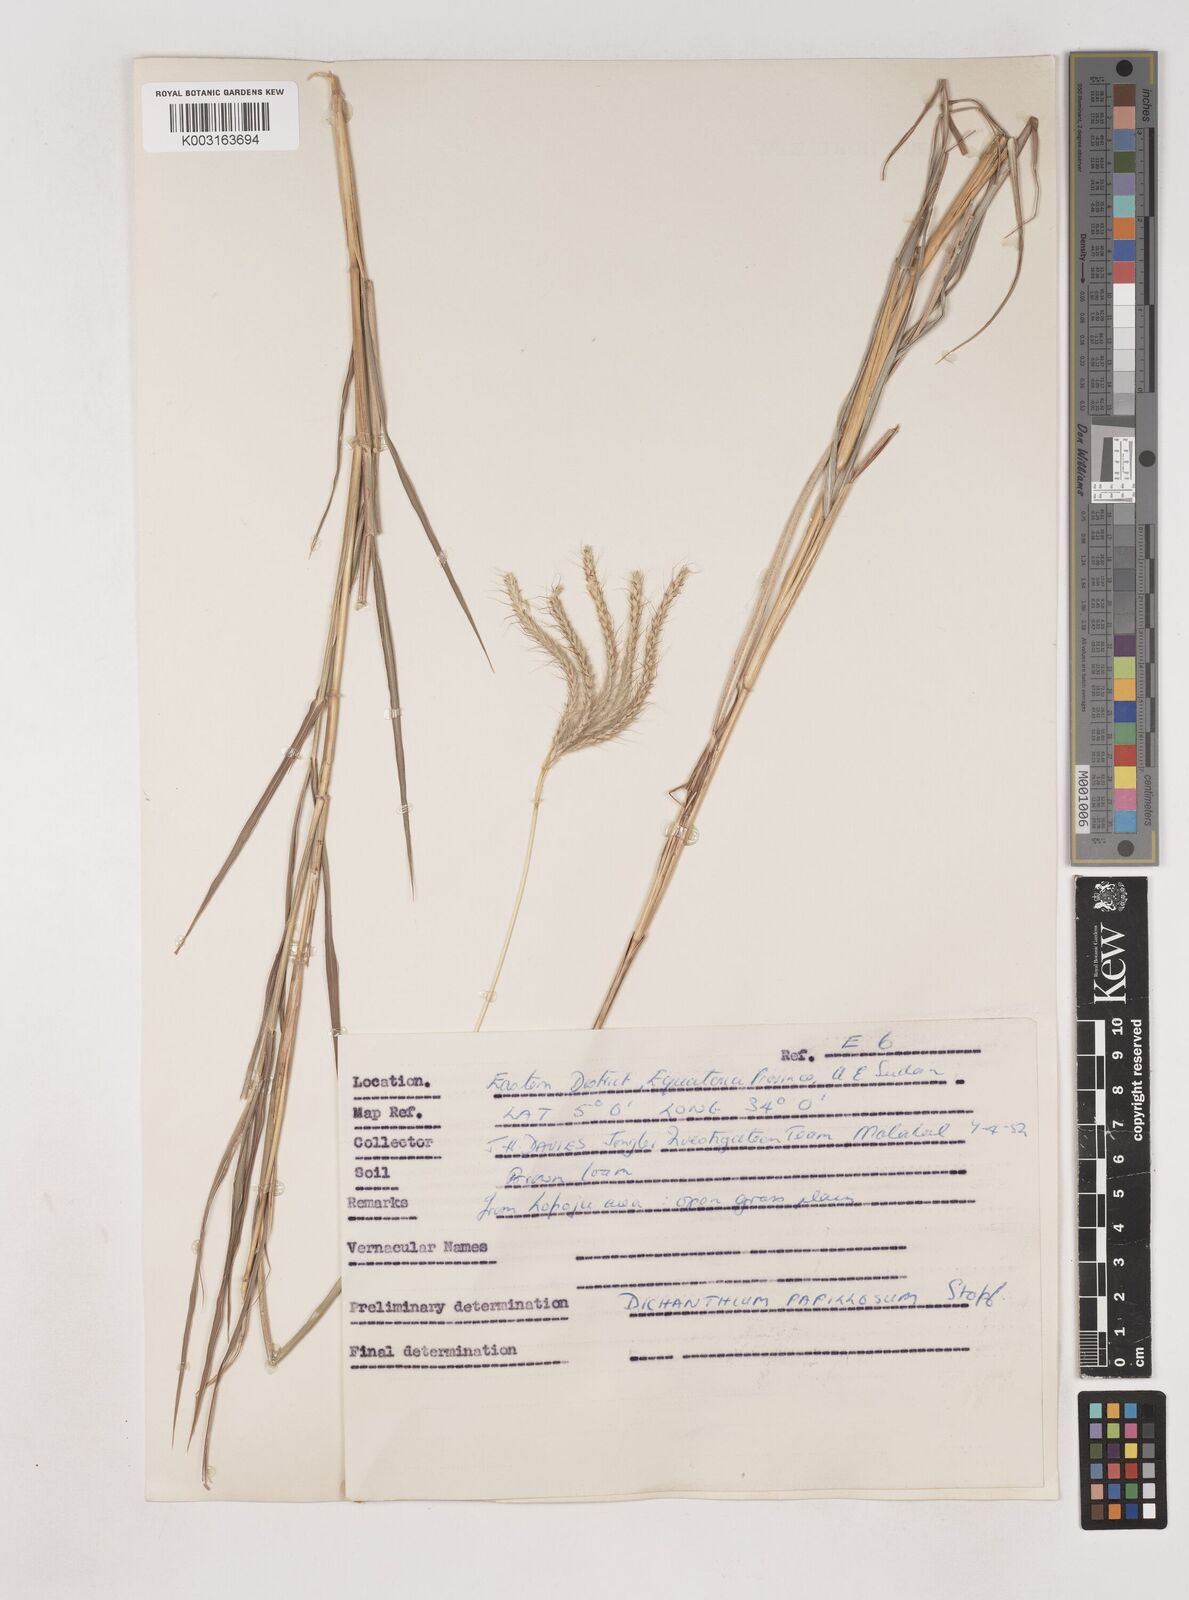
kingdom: Plantae
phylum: Tracheophyta
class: Liliopsida
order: Poales
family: Poaceae
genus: Dichanthium
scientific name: Dichanthium annulatum
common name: Kleberg's bluestem
